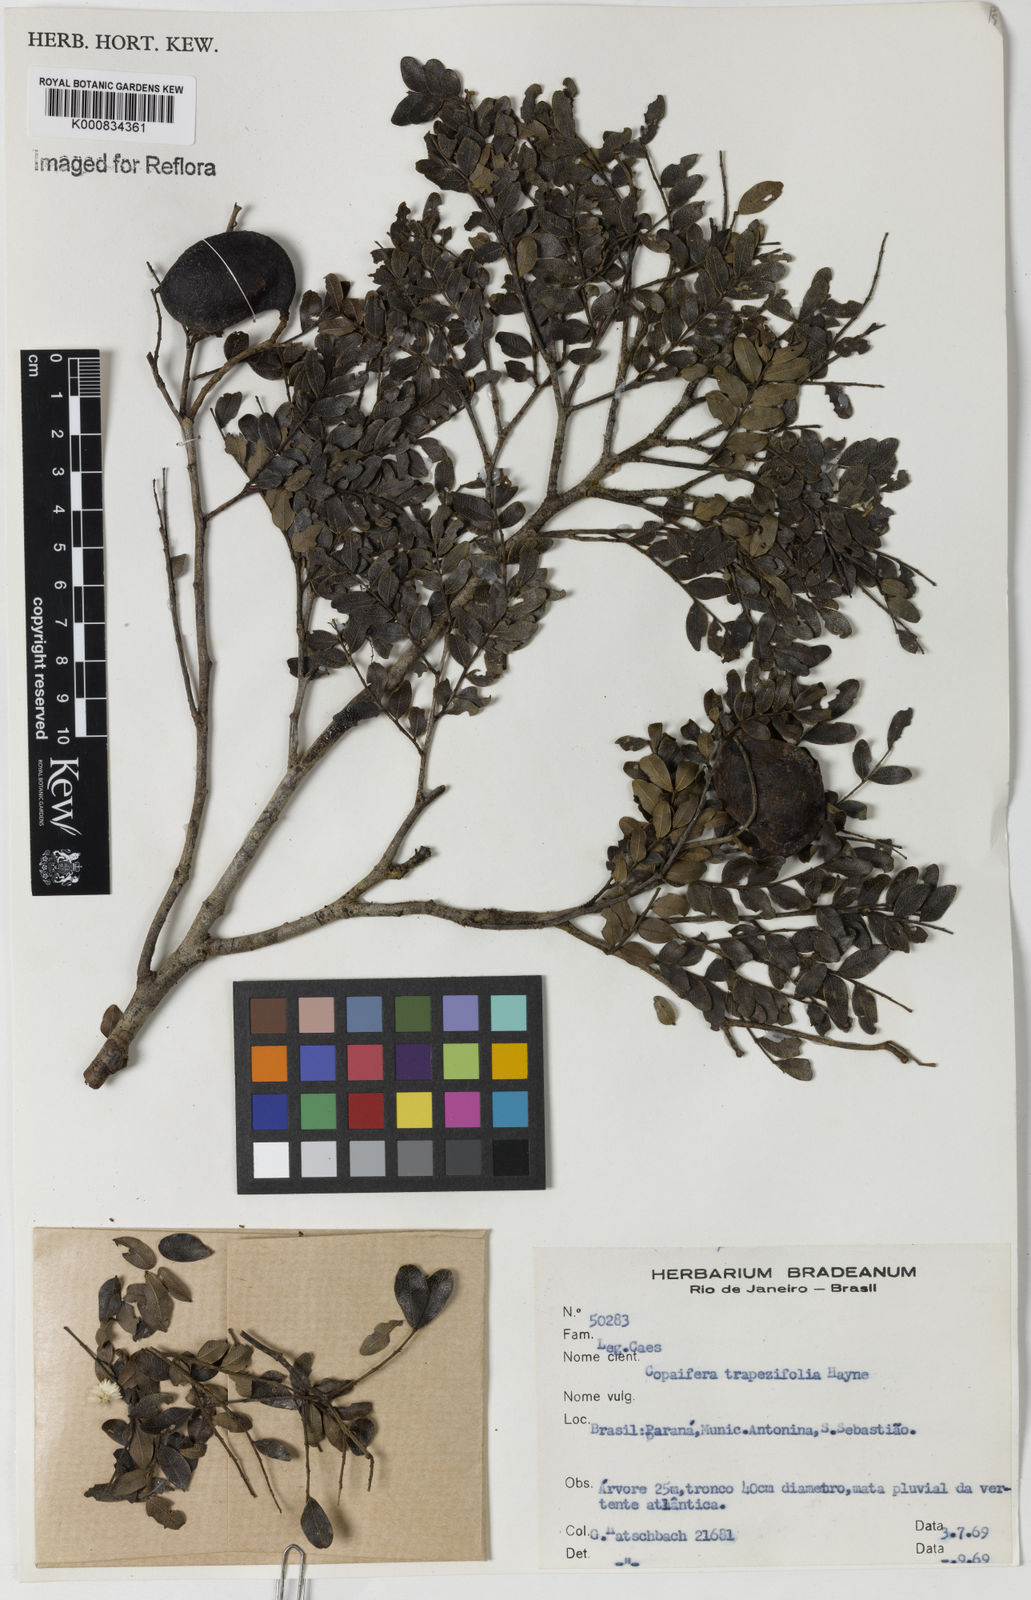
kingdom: Plantae
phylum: Tracheophyta
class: Magnoliopsida
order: Fabales
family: Fabaceae
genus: Copaifera
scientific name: Copaifera trapezifolia
